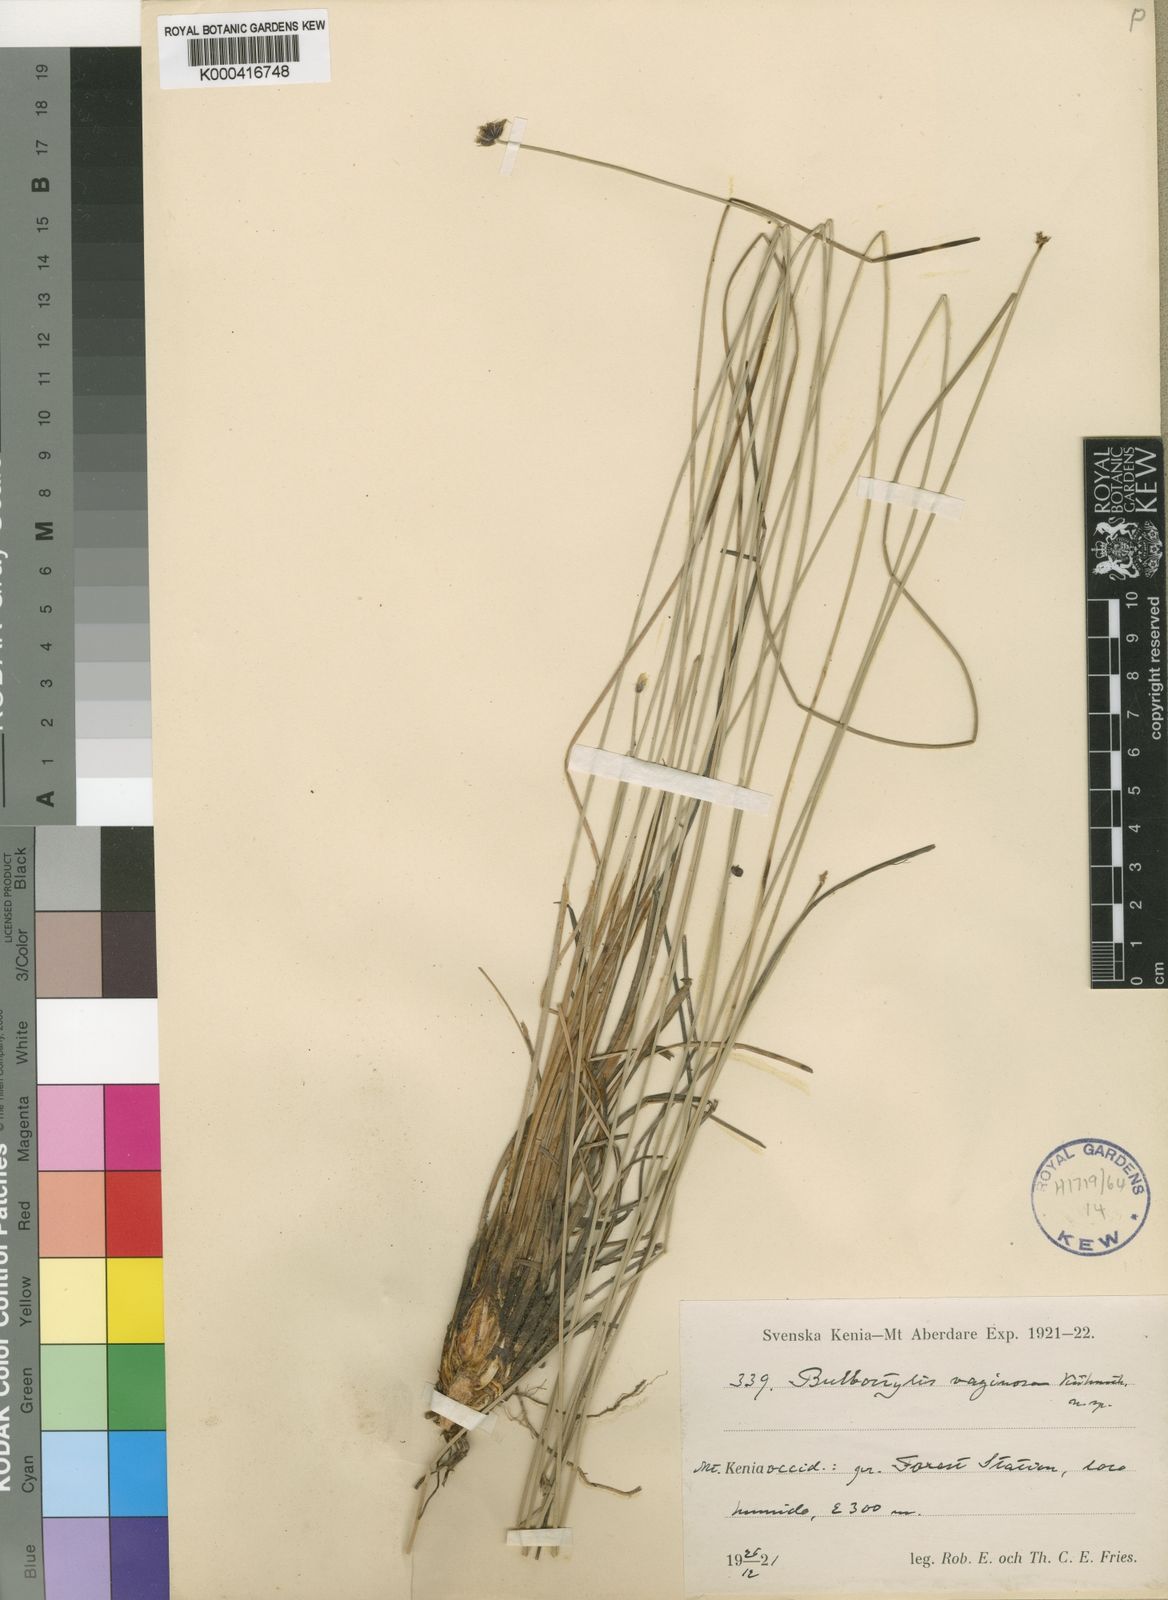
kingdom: Plantae
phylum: Tracheophyta
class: Liliopsida
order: Poales
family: Cyperaceae
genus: Bulbostylis
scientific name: Bulbostylis
